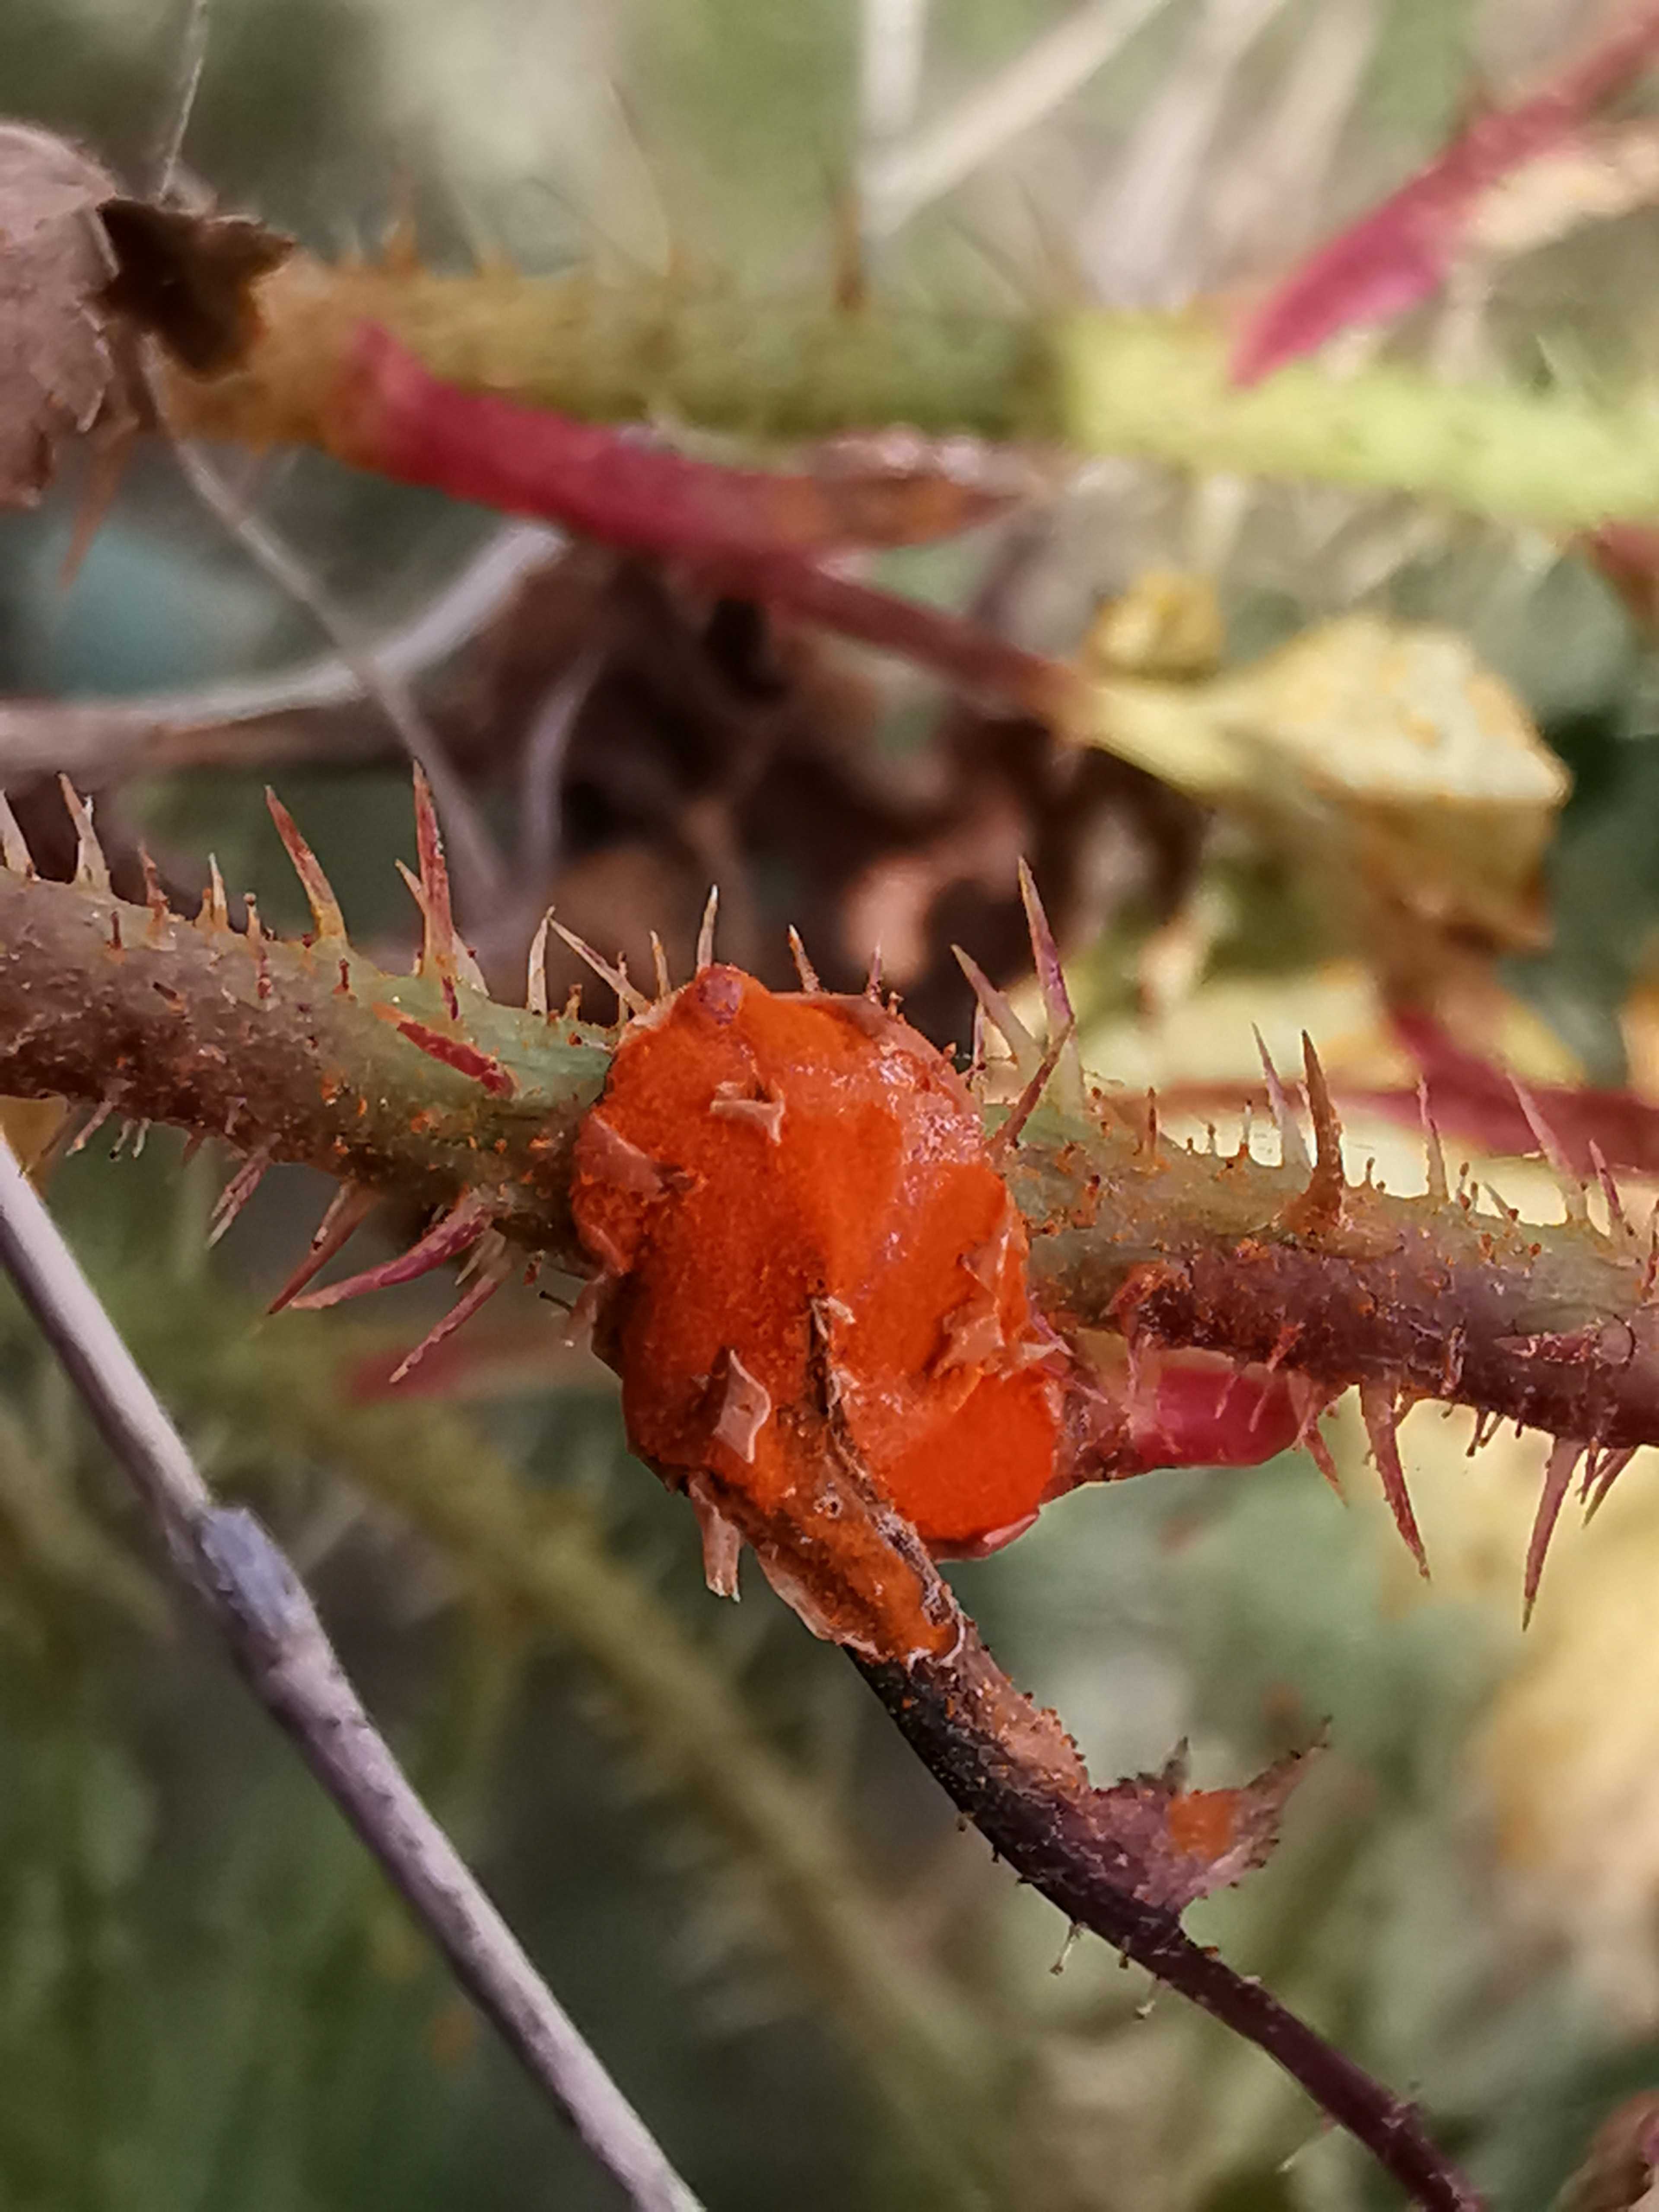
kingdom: Fungi
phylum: Basidiomycota
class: Pucciniomycetes
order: Pucciniales
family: Phragmidiaceae
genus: Phragmidium
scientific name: Phragmidium rosae-pimpinellifoliae
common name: Burnet rose rust
